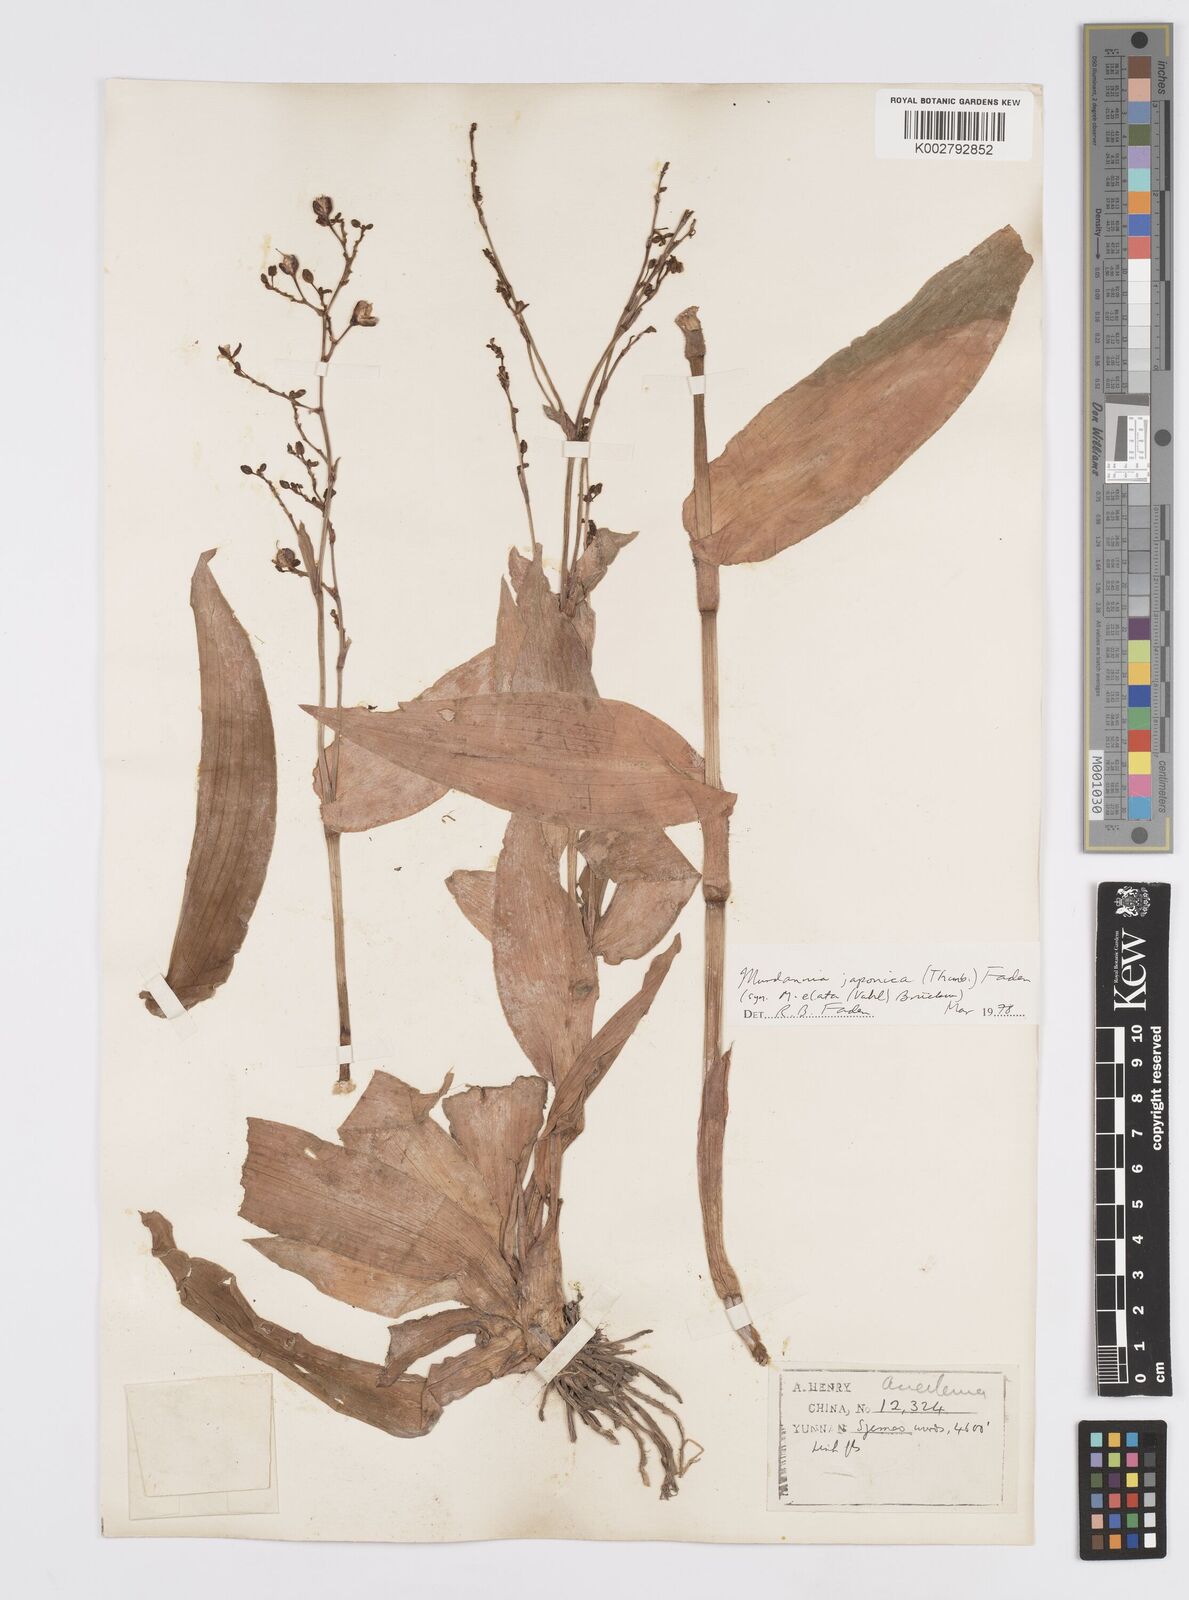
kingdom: Plantae
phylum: Tracheophyta
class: Liliopsida
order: Commelinales
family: Commelinaceae
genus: Murdannia
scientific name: Murdannia japonica
